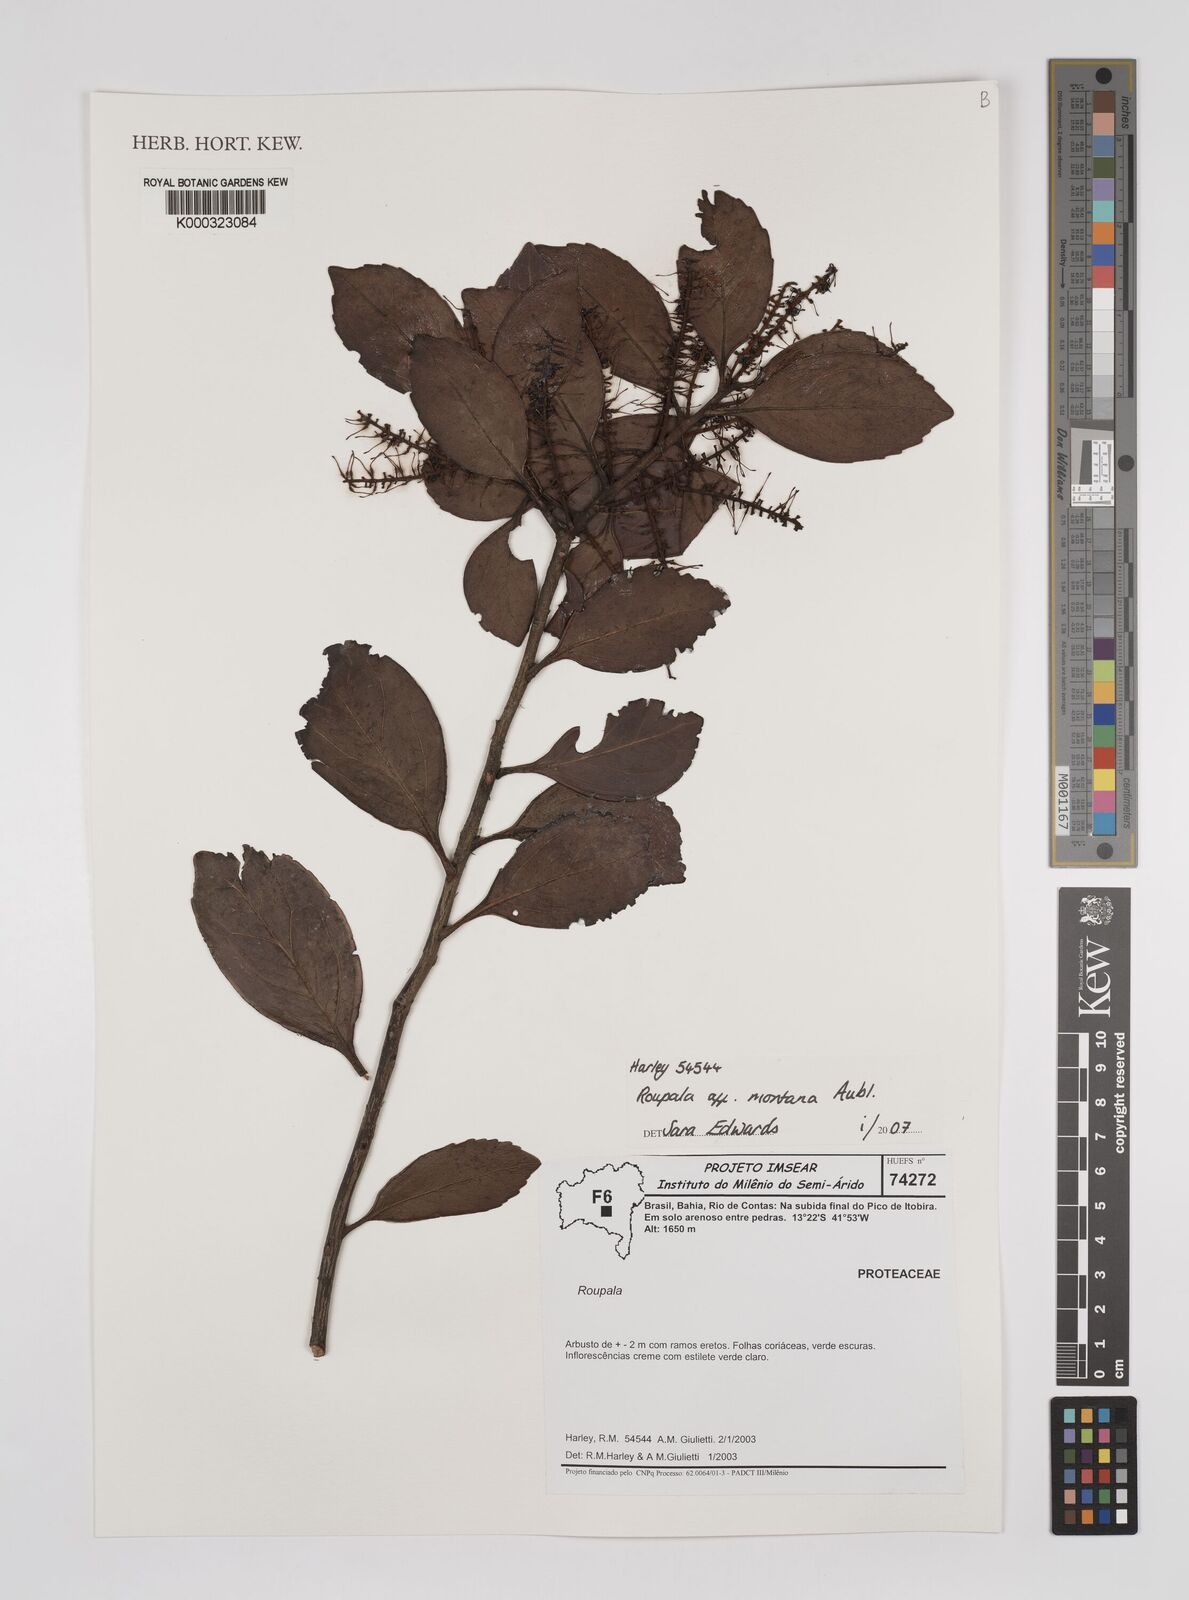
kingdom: Plantae
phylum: Tracheophyta
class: Magnoliopsida
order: Proteales
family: Proteaceae
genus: Roupala
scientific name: Roupala montana
